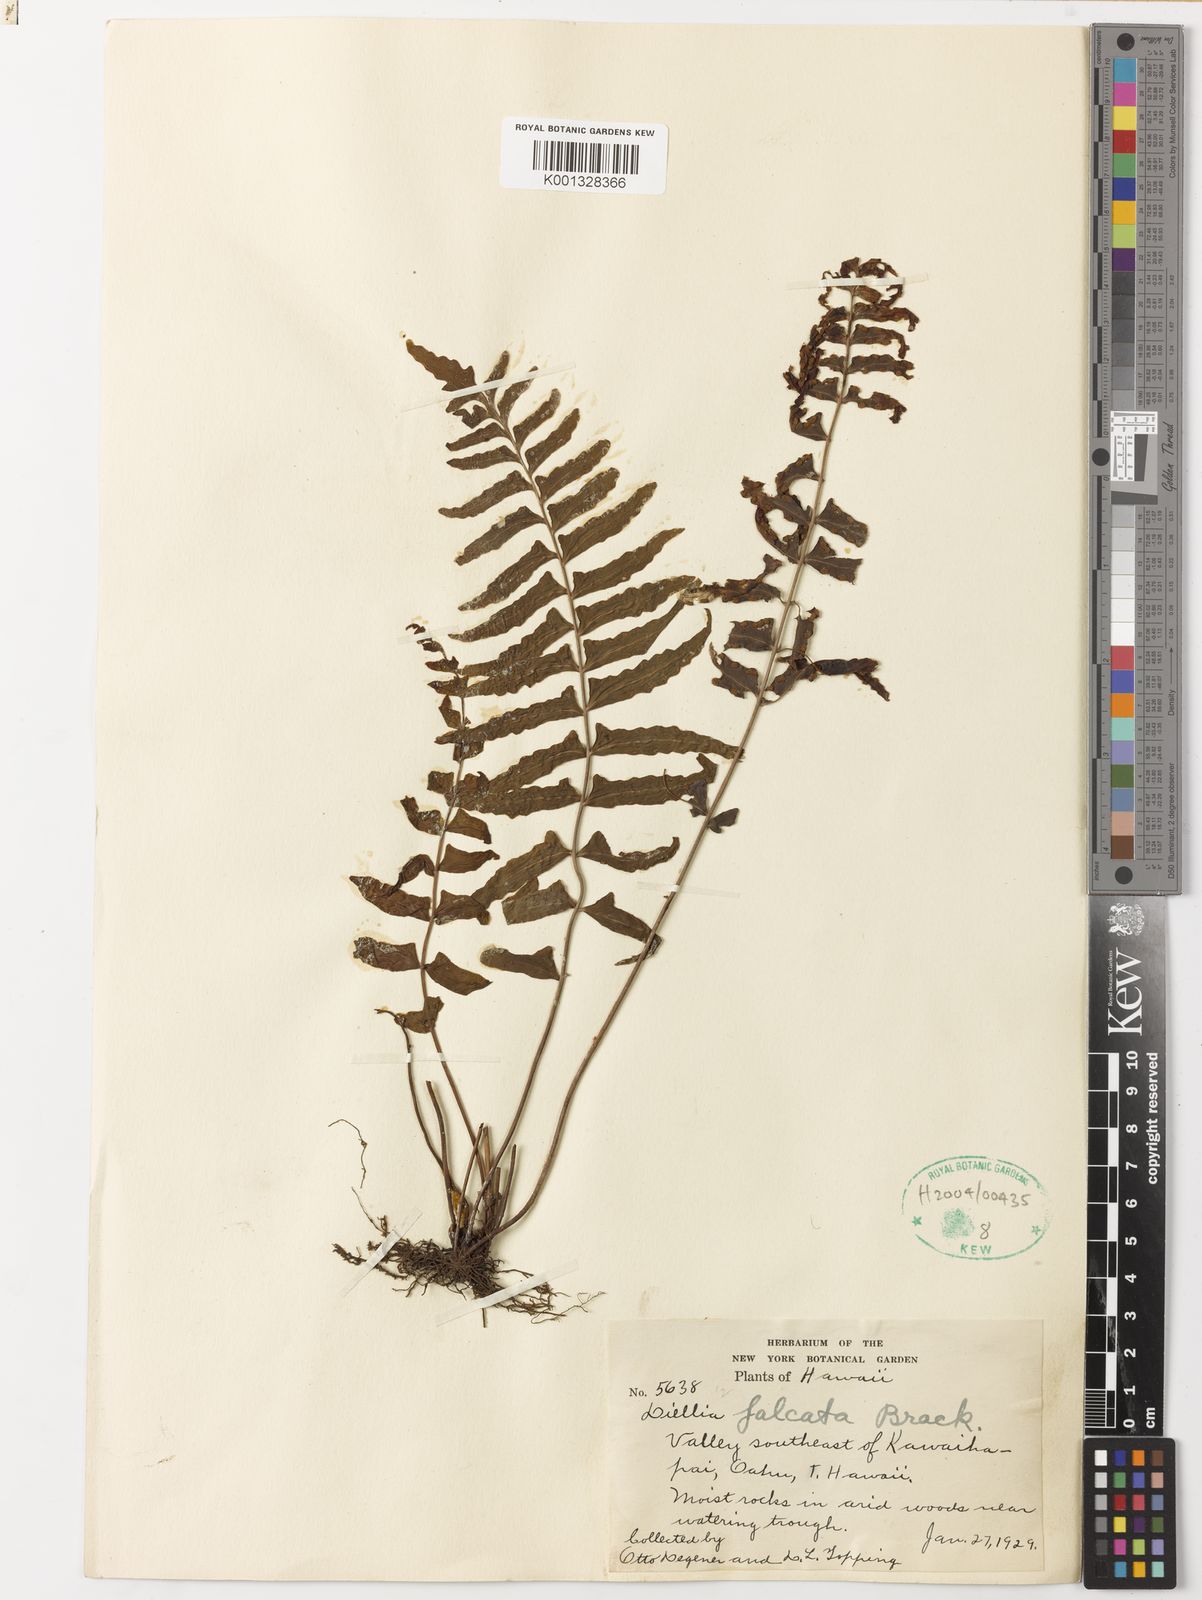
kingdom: Plantae
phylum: Tracheophyta
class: Polypodiopsida
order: Polypodiales
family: Aspleniaceae
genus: Asplenium
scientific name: Asplenium dielfalcatum
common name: Sickle island spleenwort
